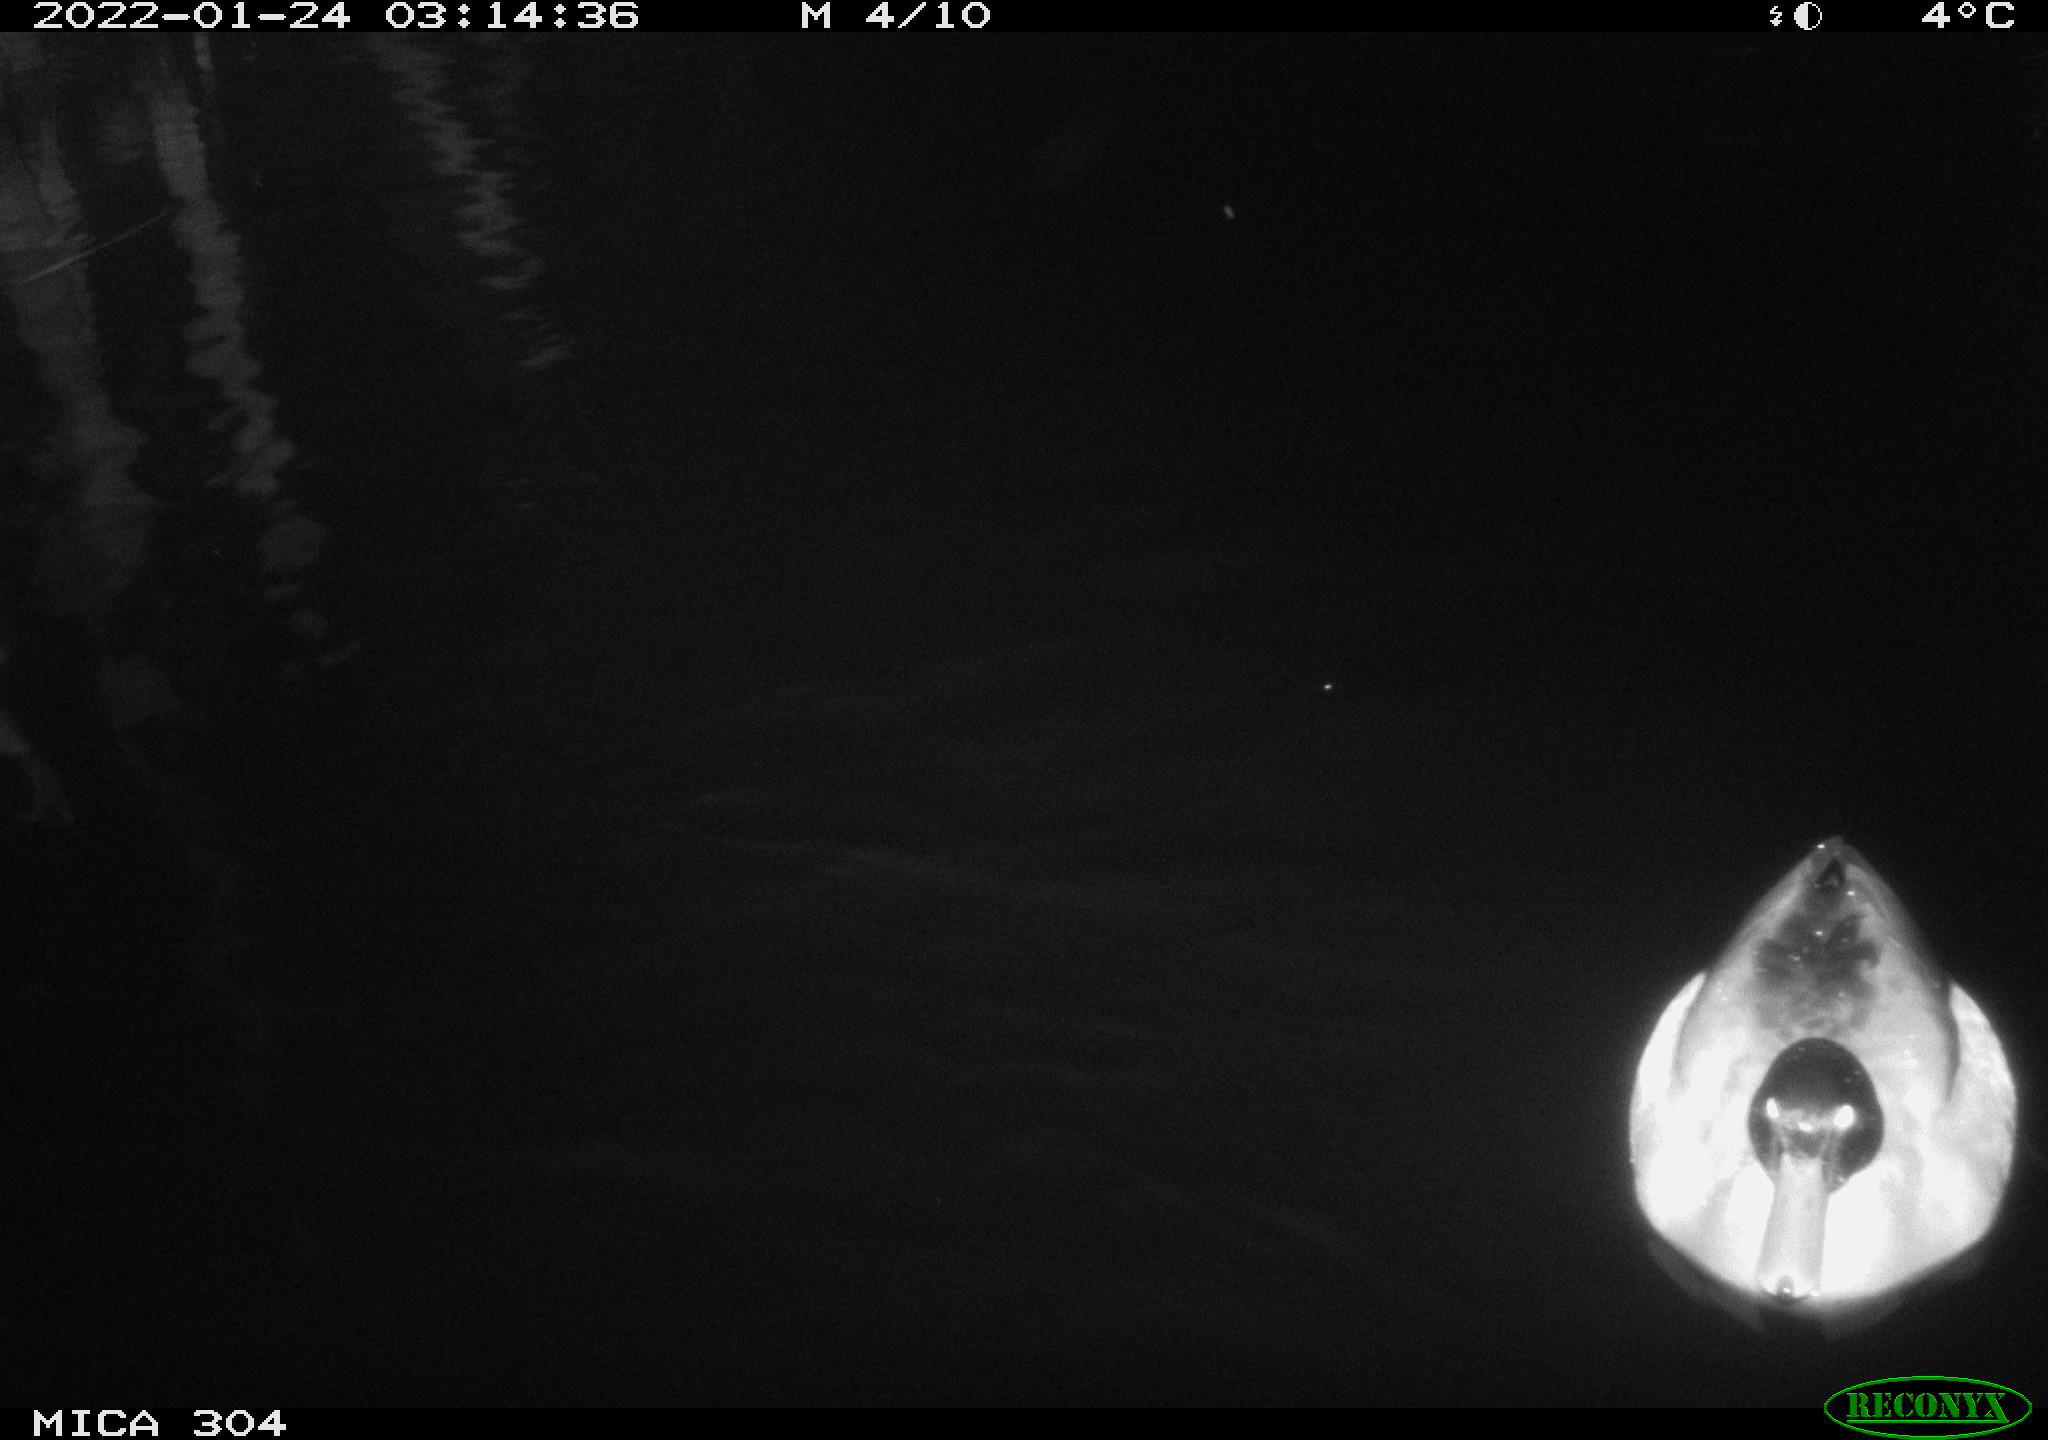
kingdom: Animalia
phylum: Chordata
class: Aves
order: Anseriformes
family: Anatidae
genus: Anas
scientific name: Anas
